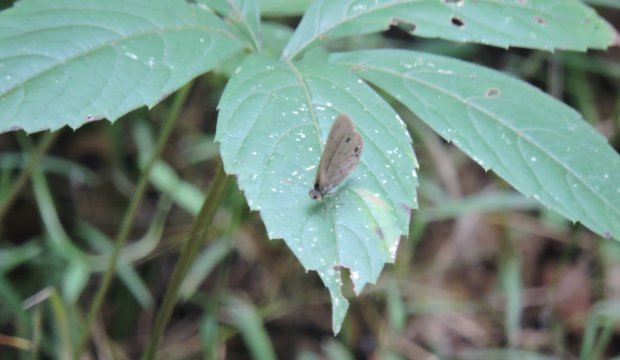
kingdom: Animalia
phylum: Arthropoda
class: Insecta
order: Lepidoptera
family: Nymphalidae
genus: Hermeuptychia
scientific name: Hermeuptychia hermes
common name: Carolina Satyr
